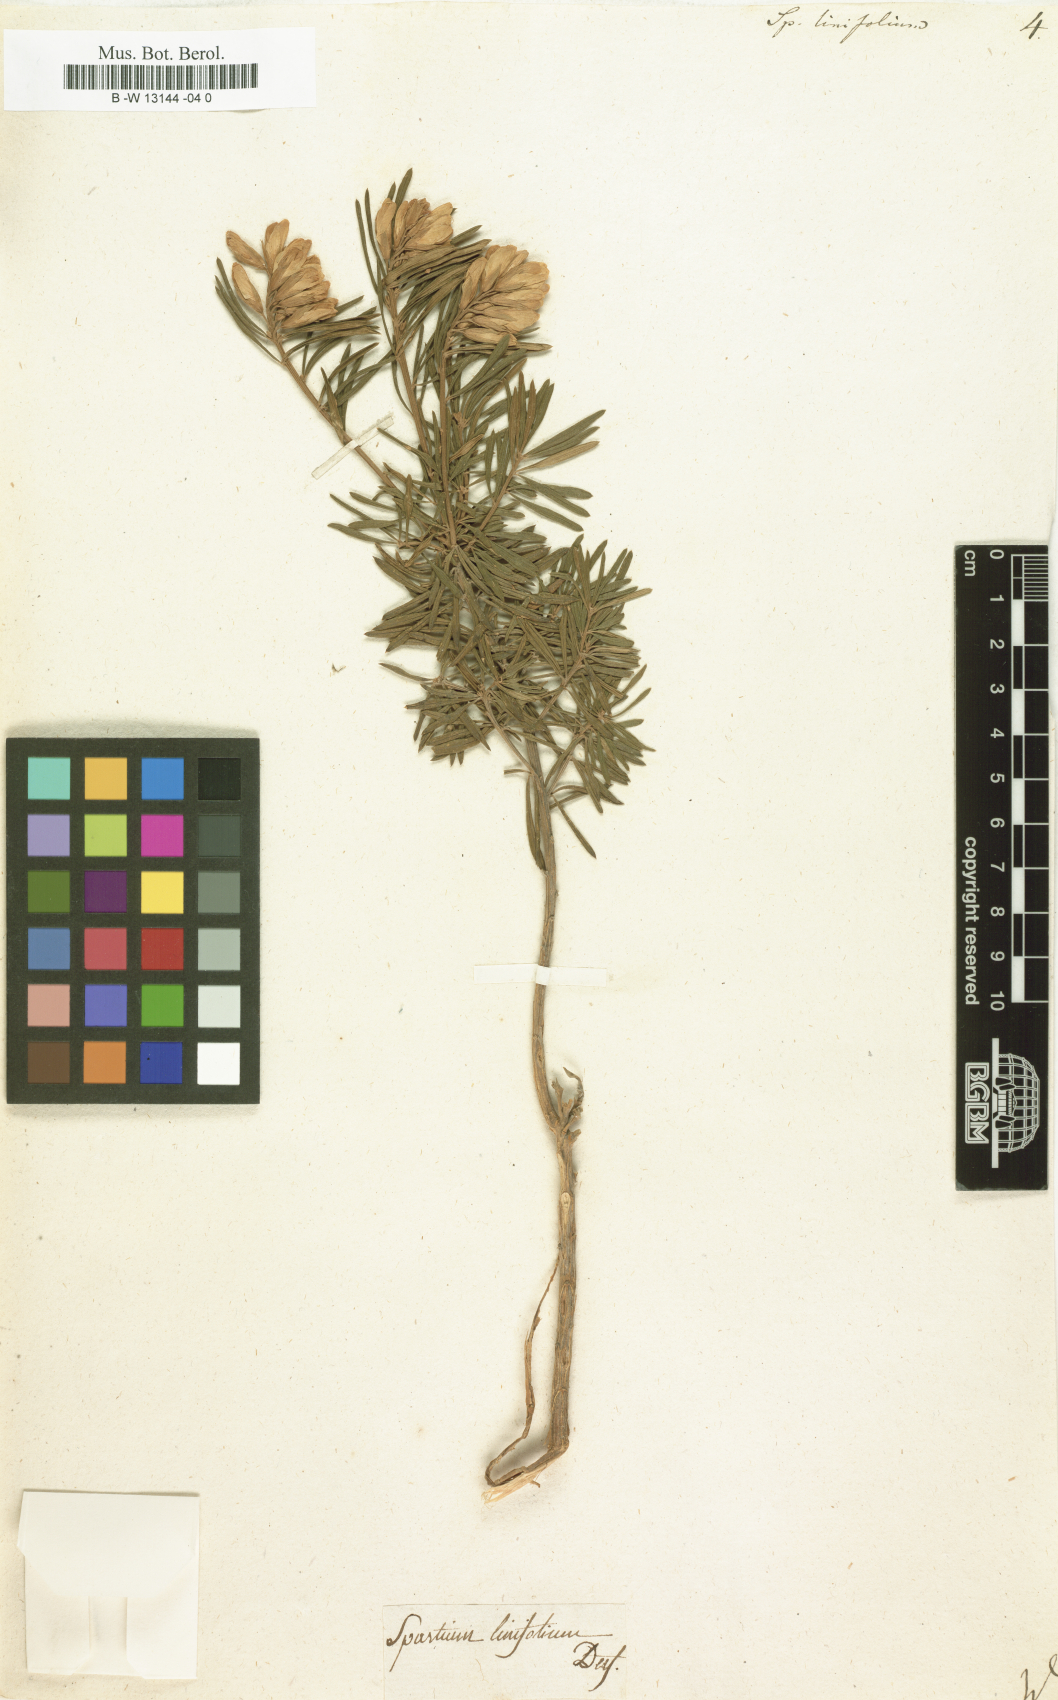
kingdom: Plantae
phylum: Tracheophyta
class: Magnoliopsida
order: Fabales
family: Fabaceae
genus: Genista
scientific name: Genista linifolia
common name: Mediterranean broom
